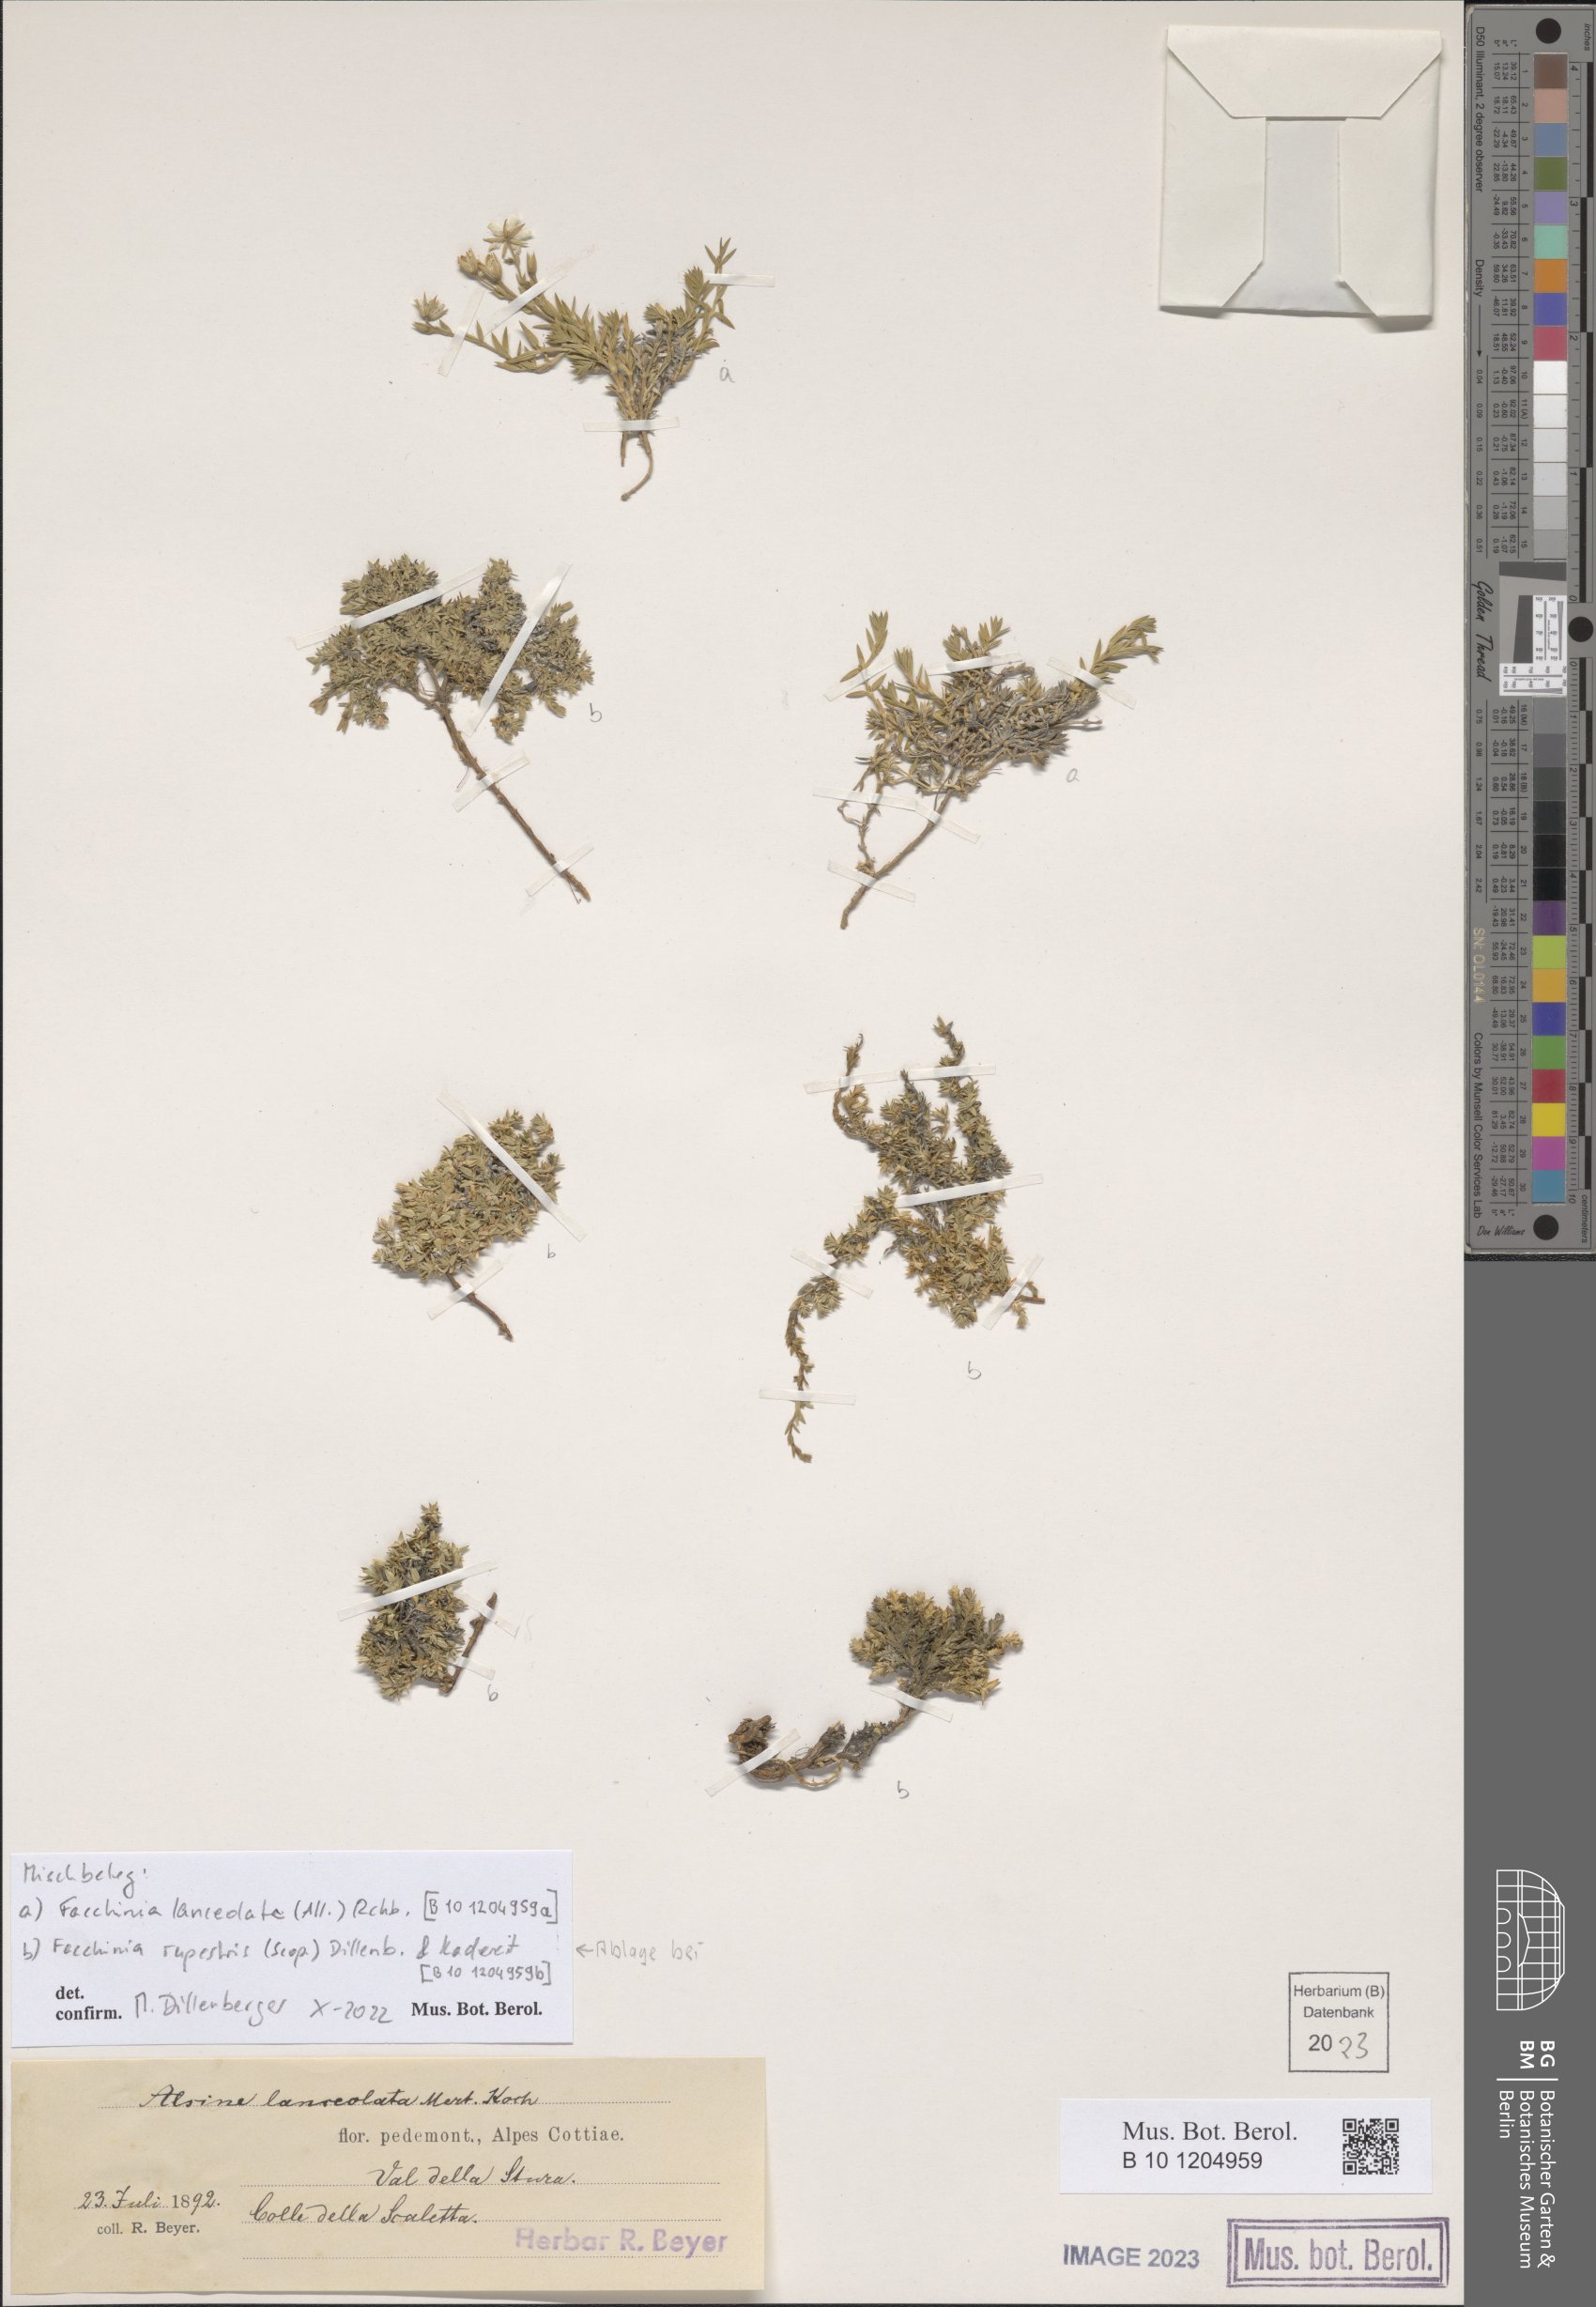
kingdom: Plantae
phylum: Tracheophyta
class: Magnoliopsida
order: Caryophyllales
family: Caryophyllaceae
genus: Facchinia
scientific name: Facchinia lanceolata
